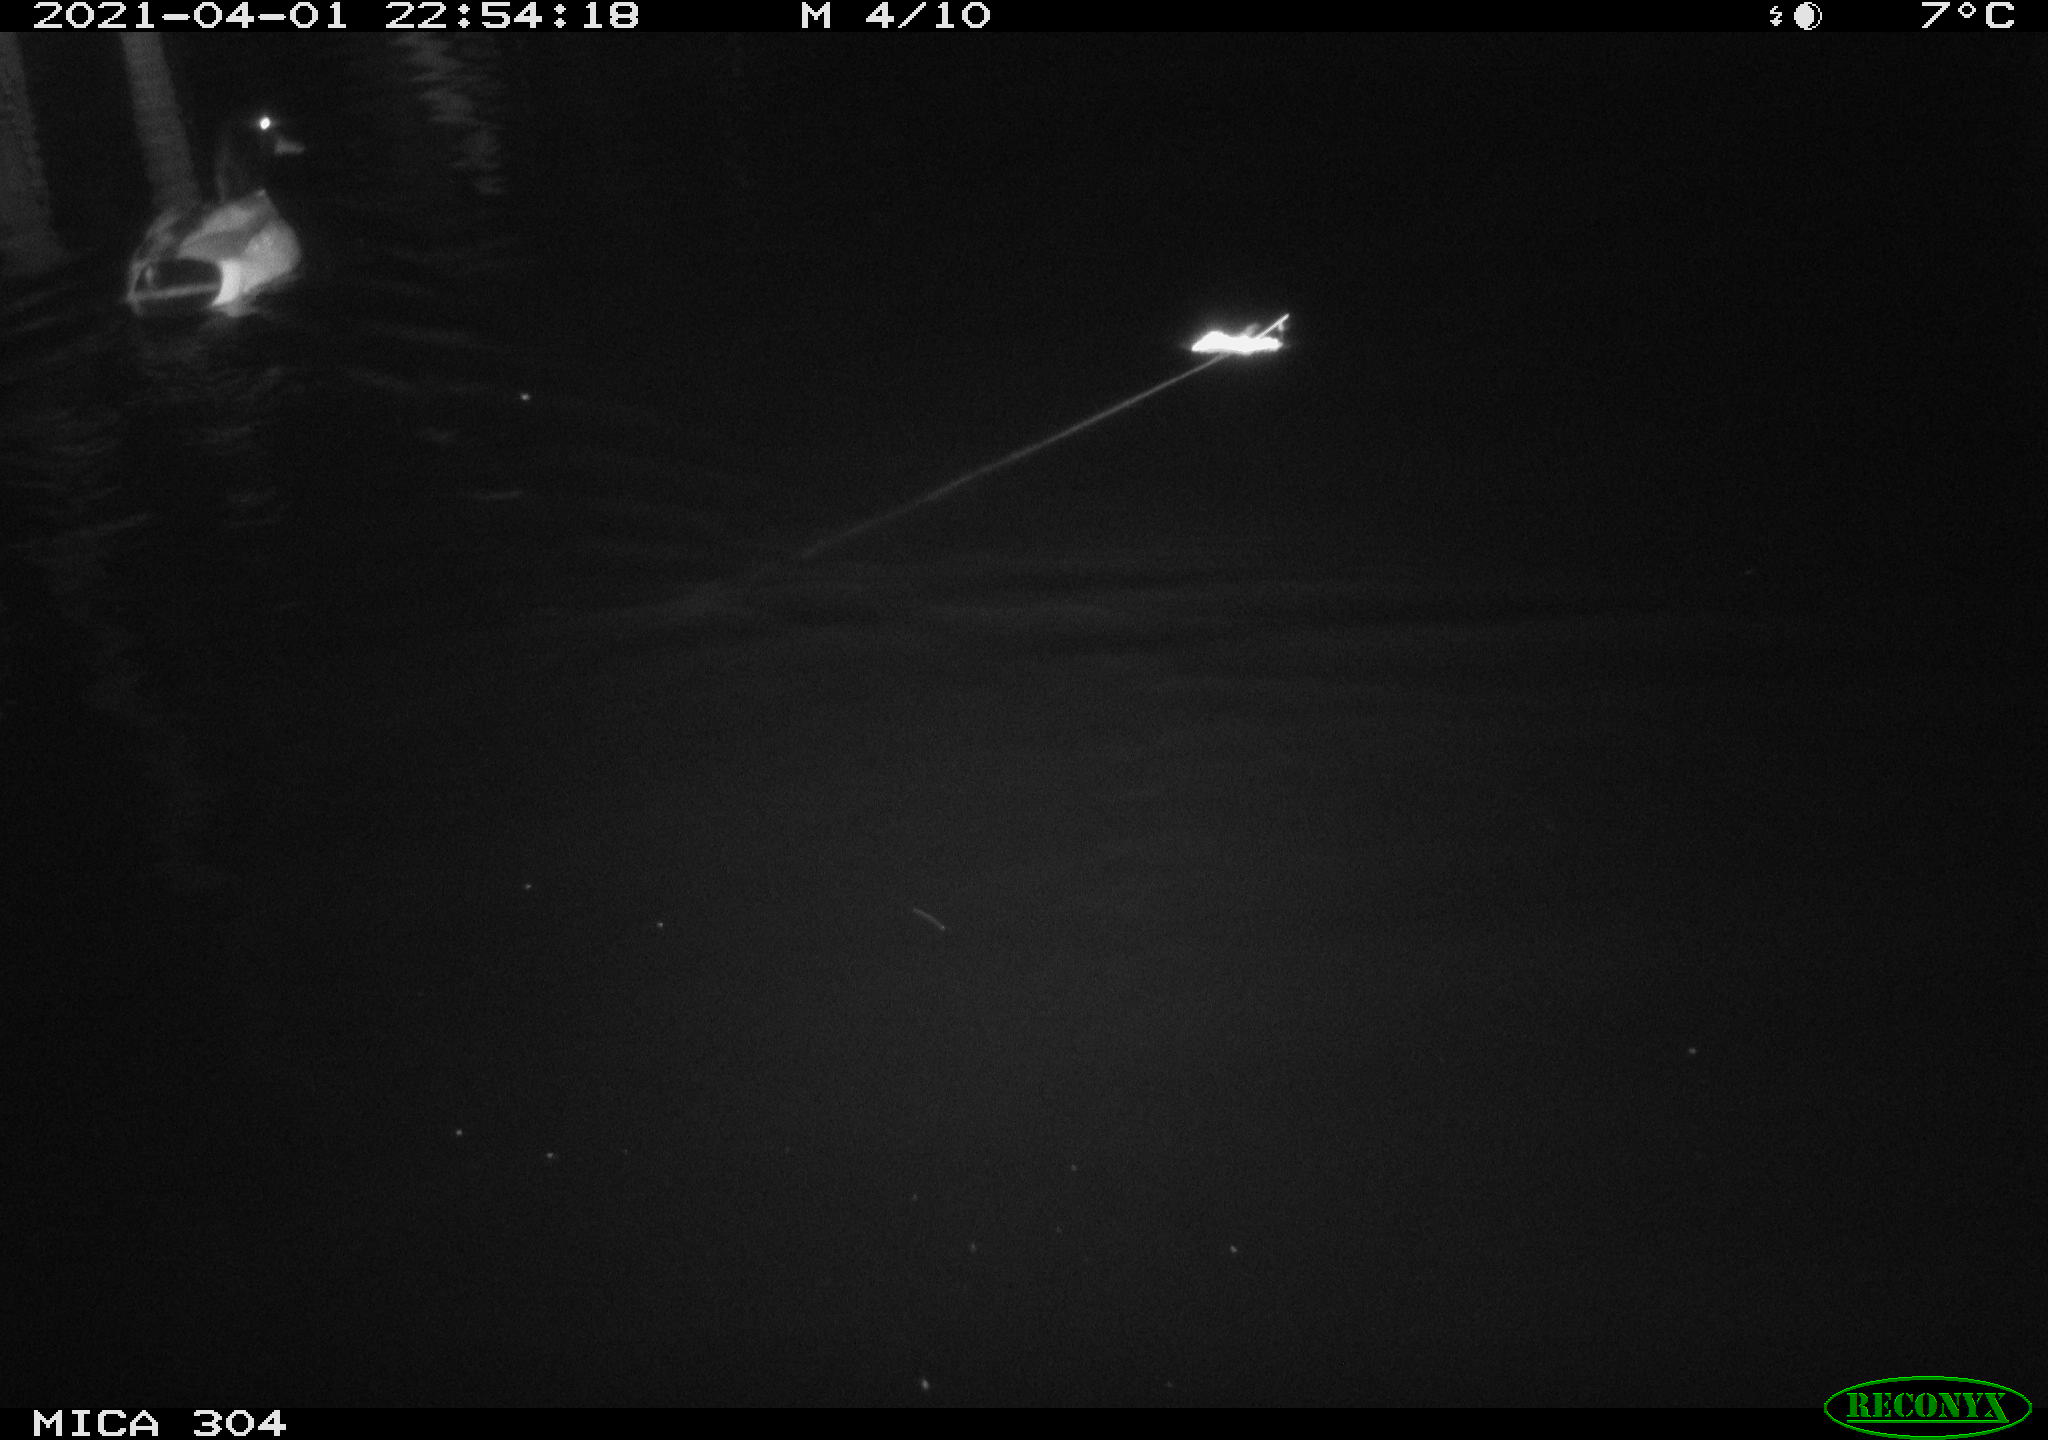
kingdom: Animalia
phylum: Chordata
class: Aves
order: Anseriformes
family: Anatidae
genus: Anas
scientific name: Anas
